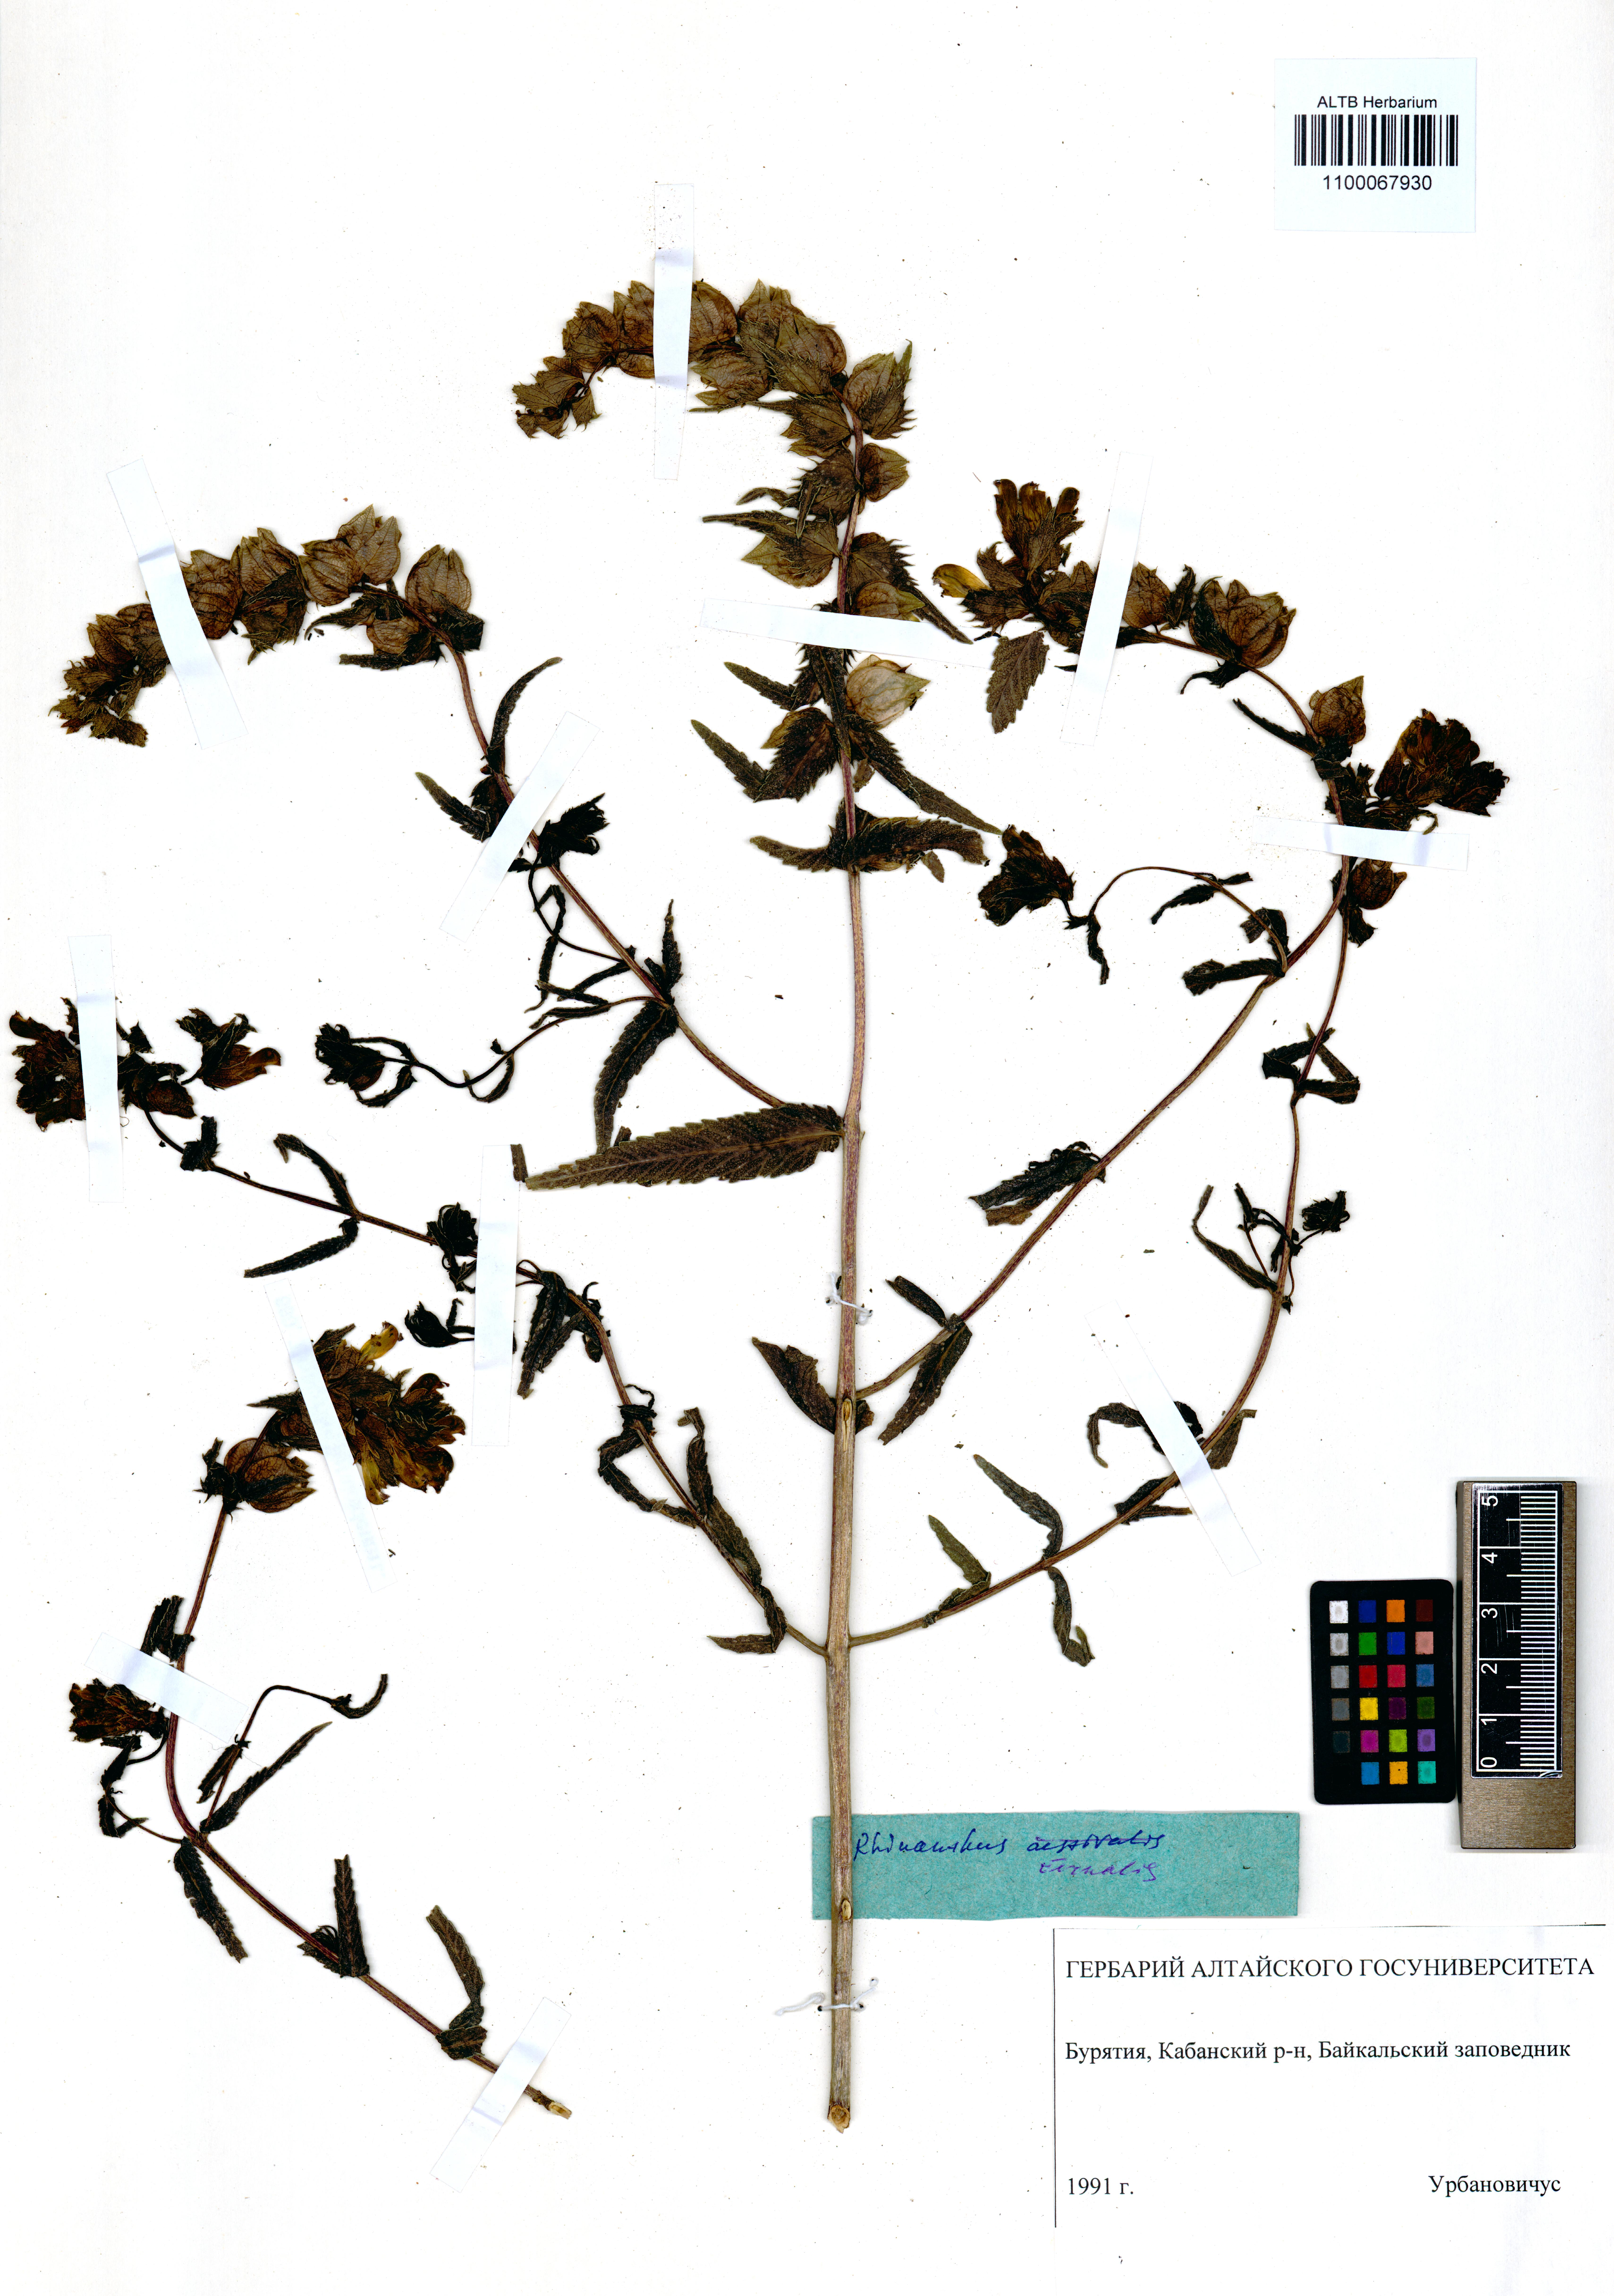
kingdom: Plantae
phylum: Tracheophyta
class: Magnoliopsida
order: Lamiales
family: Orobanchaceae
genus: Rhinanthus
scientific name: Rhinanthus serotinus
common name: Late-flowering yellow rattle
